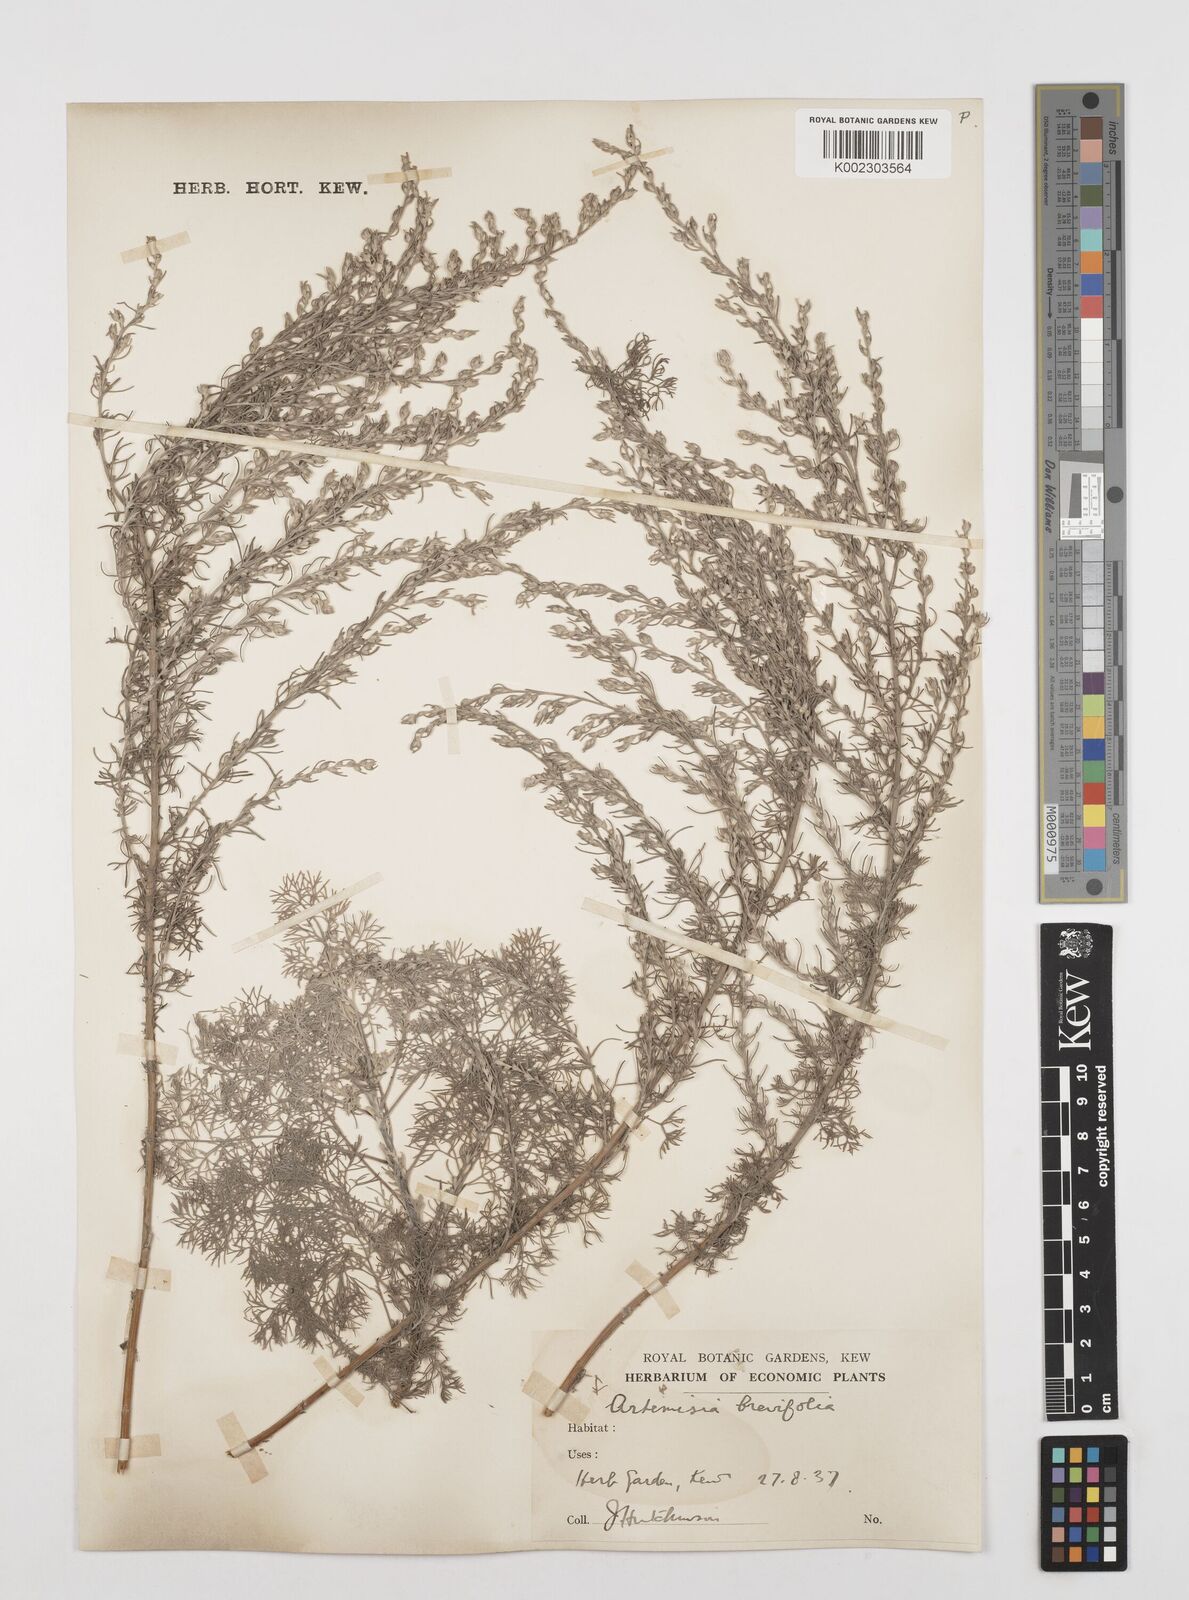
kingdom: Plantae
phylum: Tracheophyta
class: Magnoliopsida
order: Asterales
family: Asteraceae
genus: Artemisia
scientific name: Artemisia brevifolia
